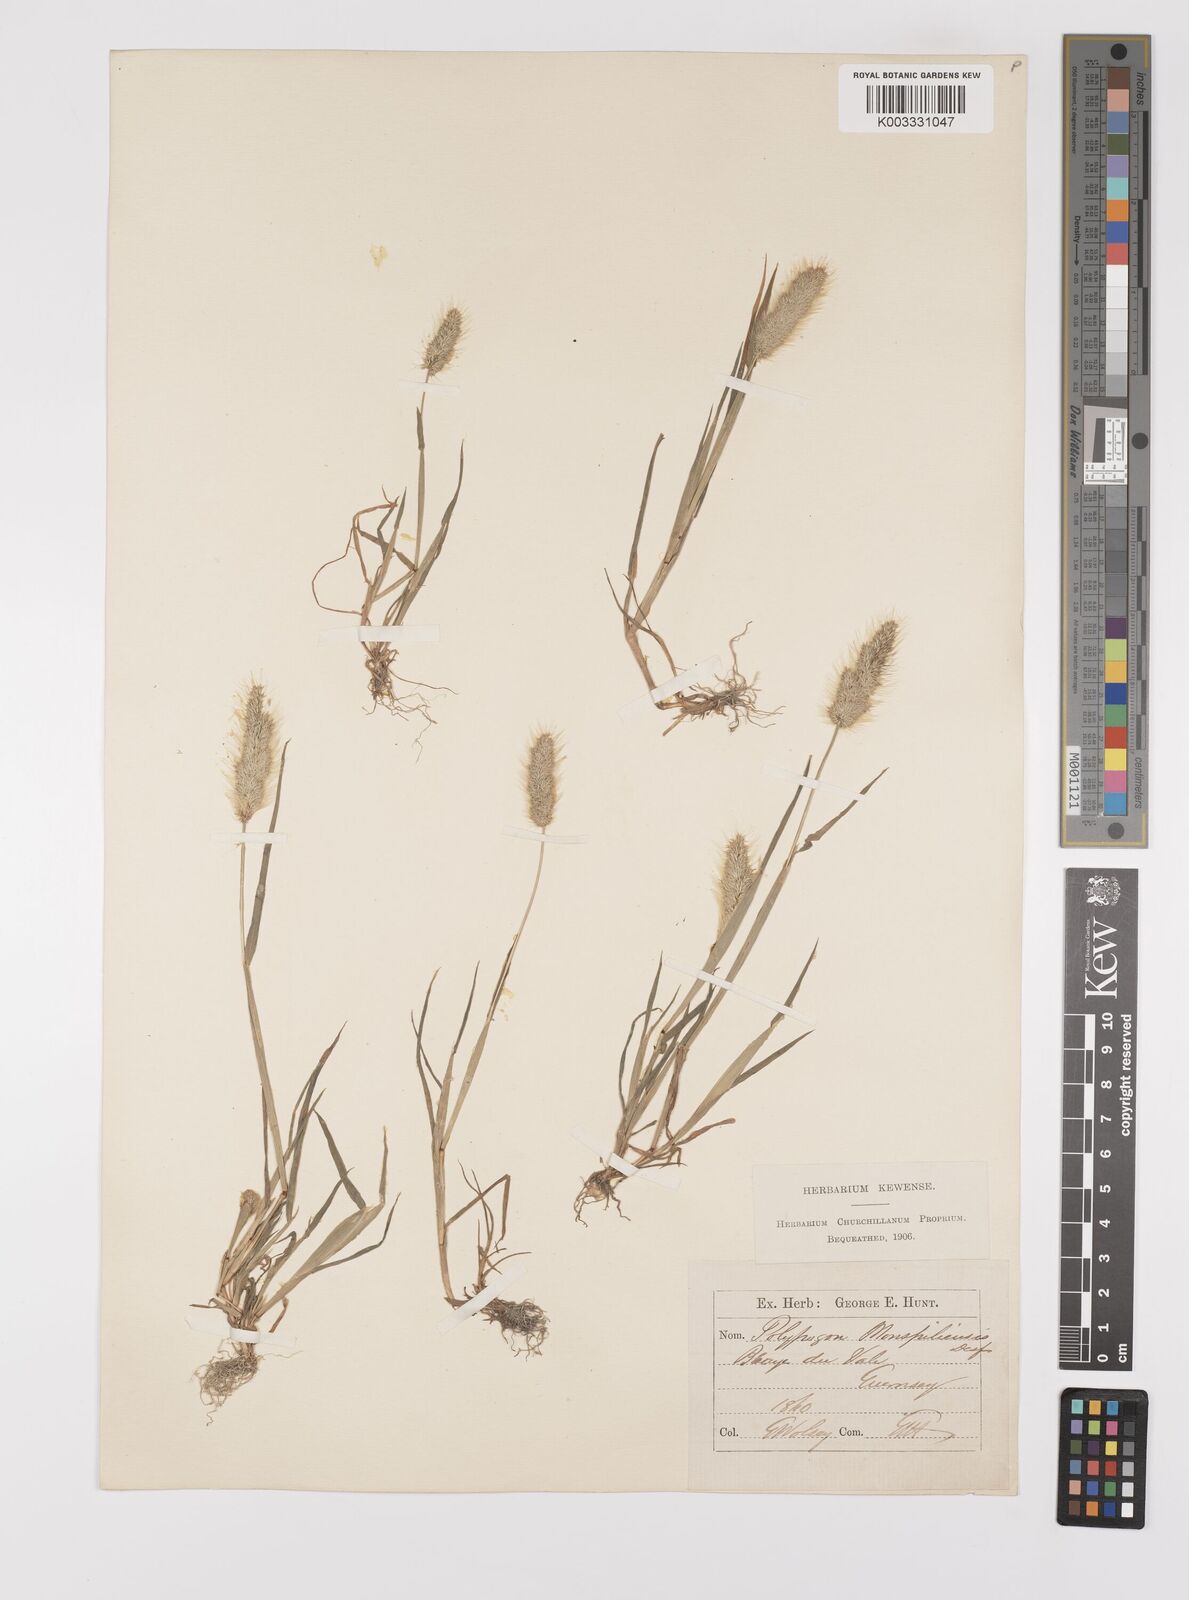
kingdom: Plantae
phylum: Tracheophyta
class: Liliopsida
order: Poales
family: Poaceae
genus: Polypogon
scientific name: Polypogon monspeliensis
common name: Annual rabbitsfoot grass
